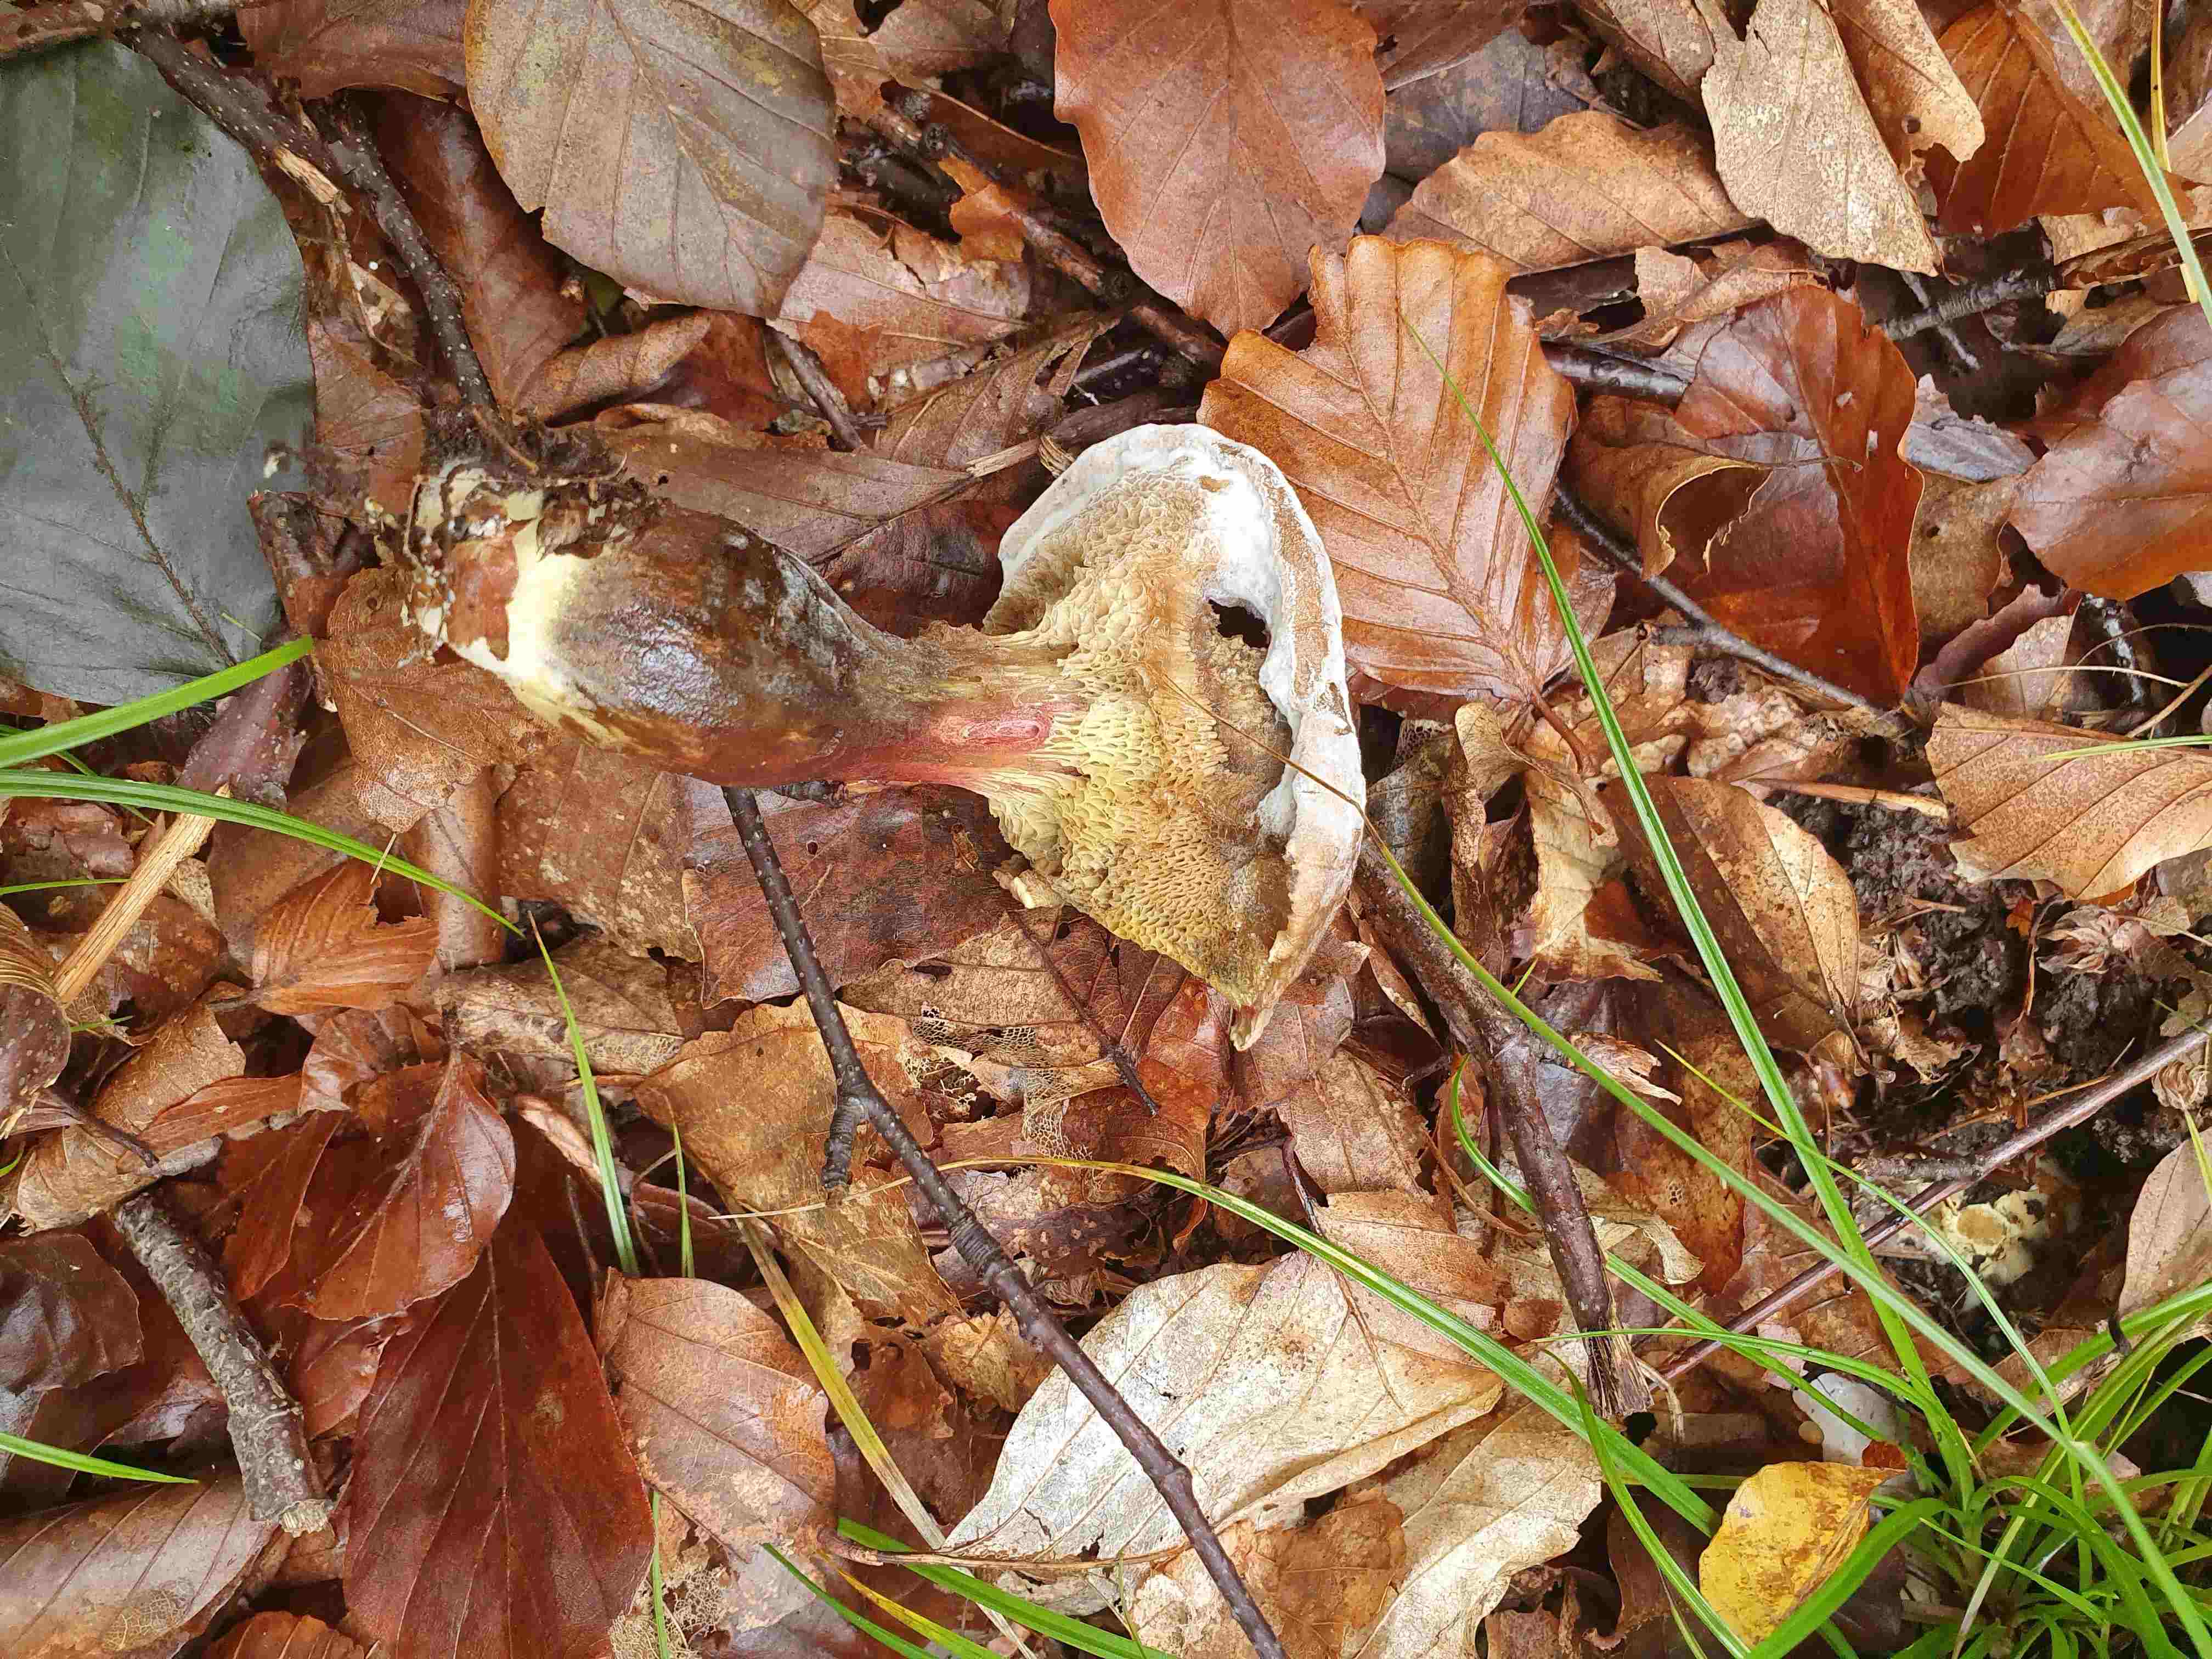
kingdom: Fungi
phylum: Basidiomycota
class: Agaricomycetes
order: Boletales
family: Boletaceae
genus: Xerocomellus
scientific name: Xerocomellus chrysenteron
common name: rødsprukken rørhat
